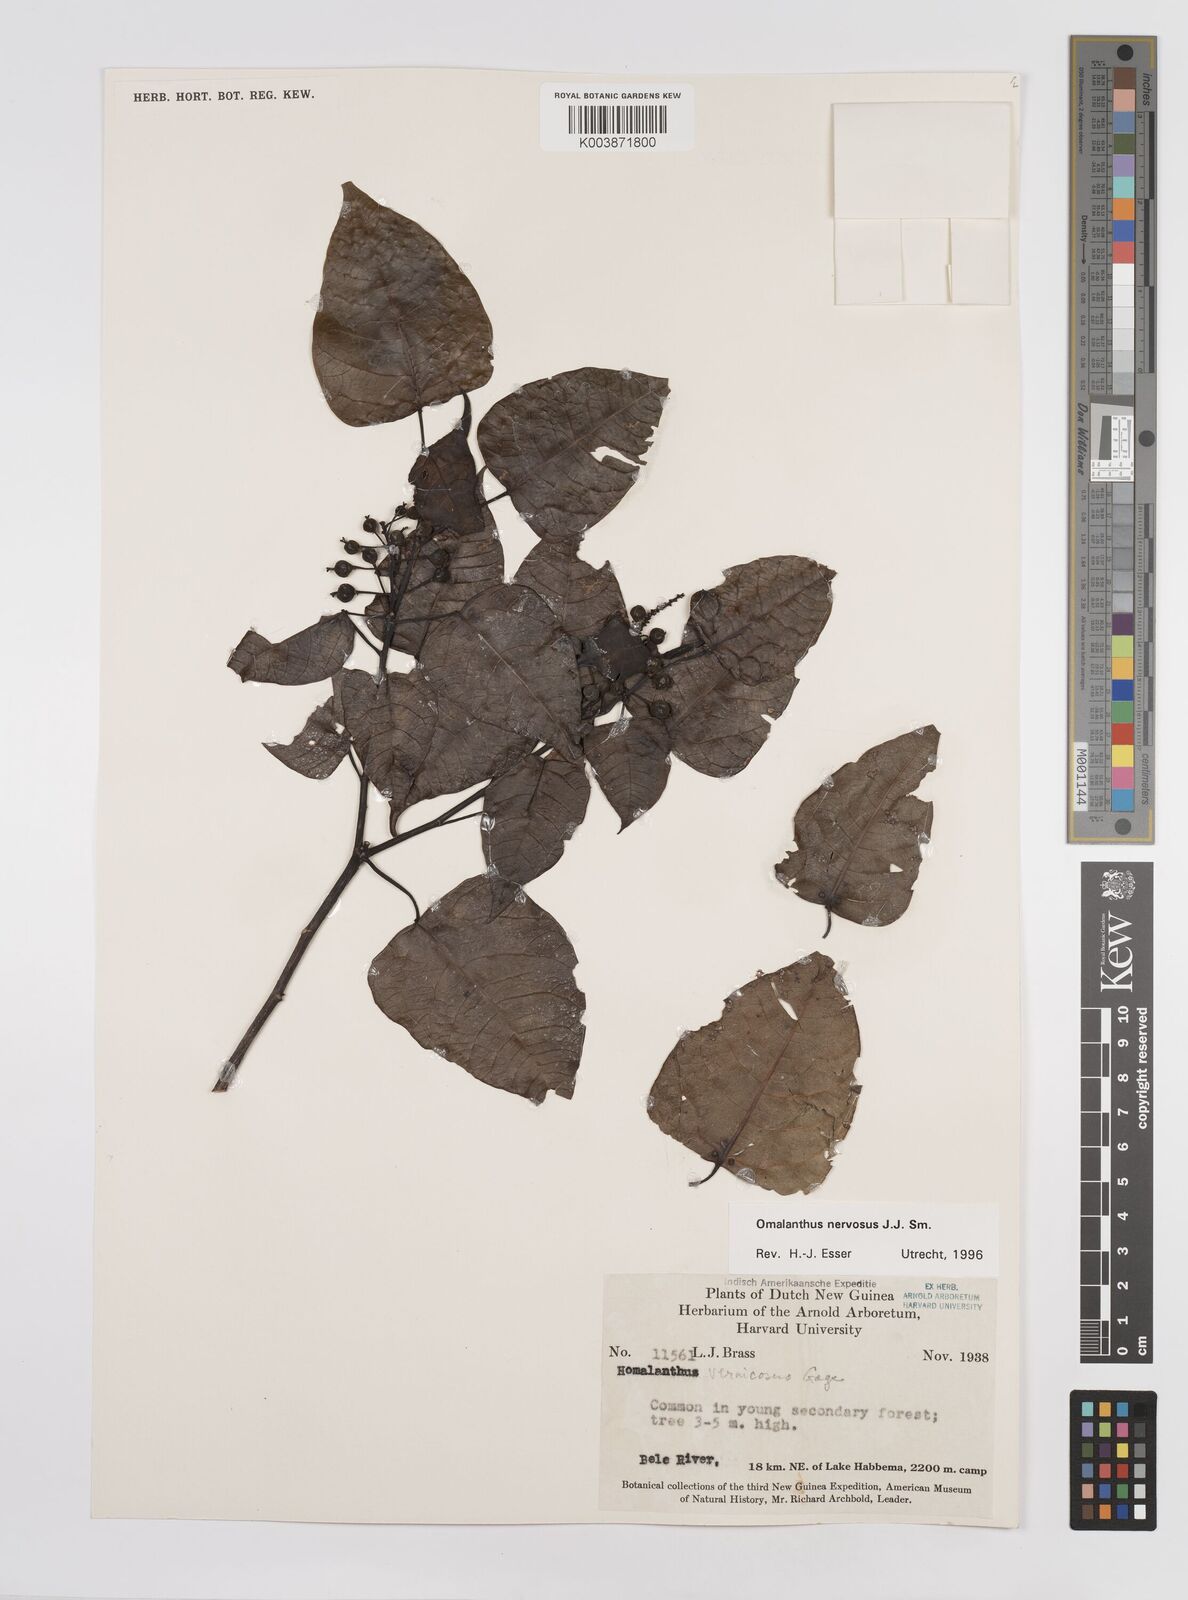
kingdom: Plantae
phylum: Tracheophyta
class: Magnoliopsida
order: Malpighiales
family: Euphorbiaceae
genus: Homalanthus
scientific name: Homalanthus nervosus
